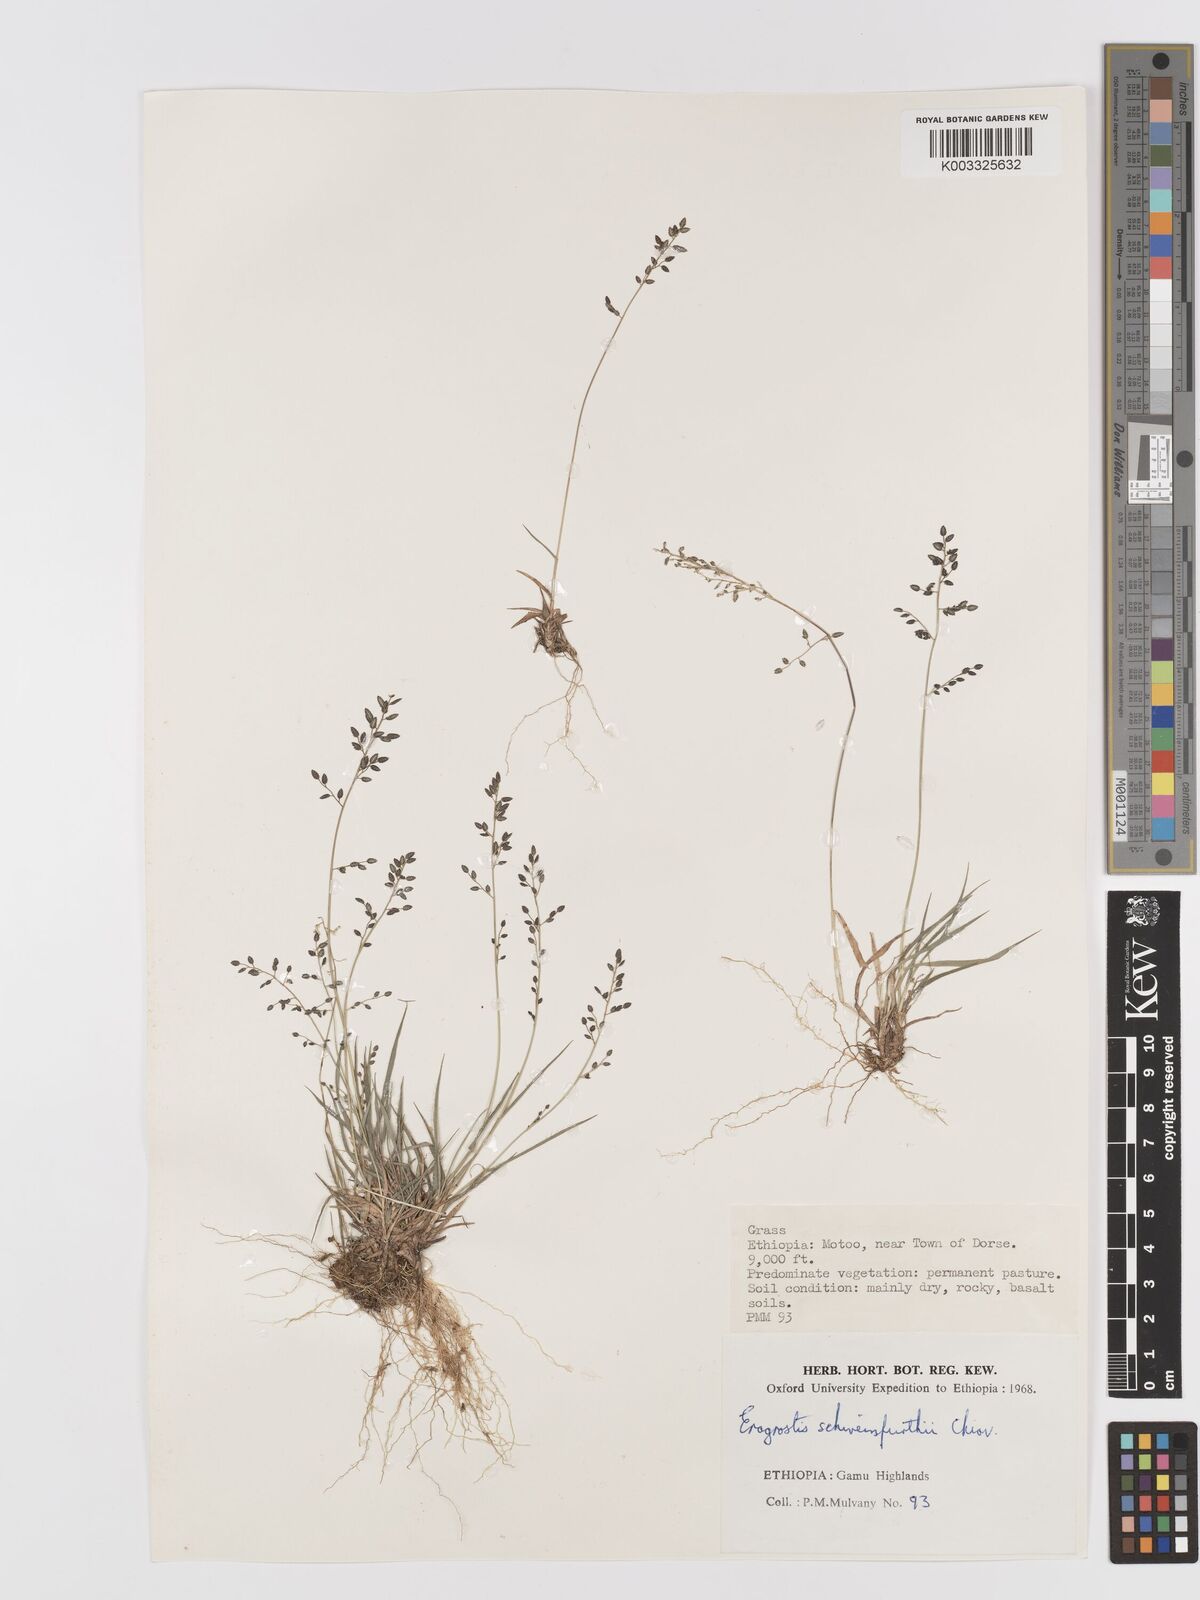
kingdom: Plantae
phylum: Tracheophyta
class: Liliopsida
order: Poales
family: Poaceae
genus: Eragrostis
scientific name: Eragrostis schweinfurthii
